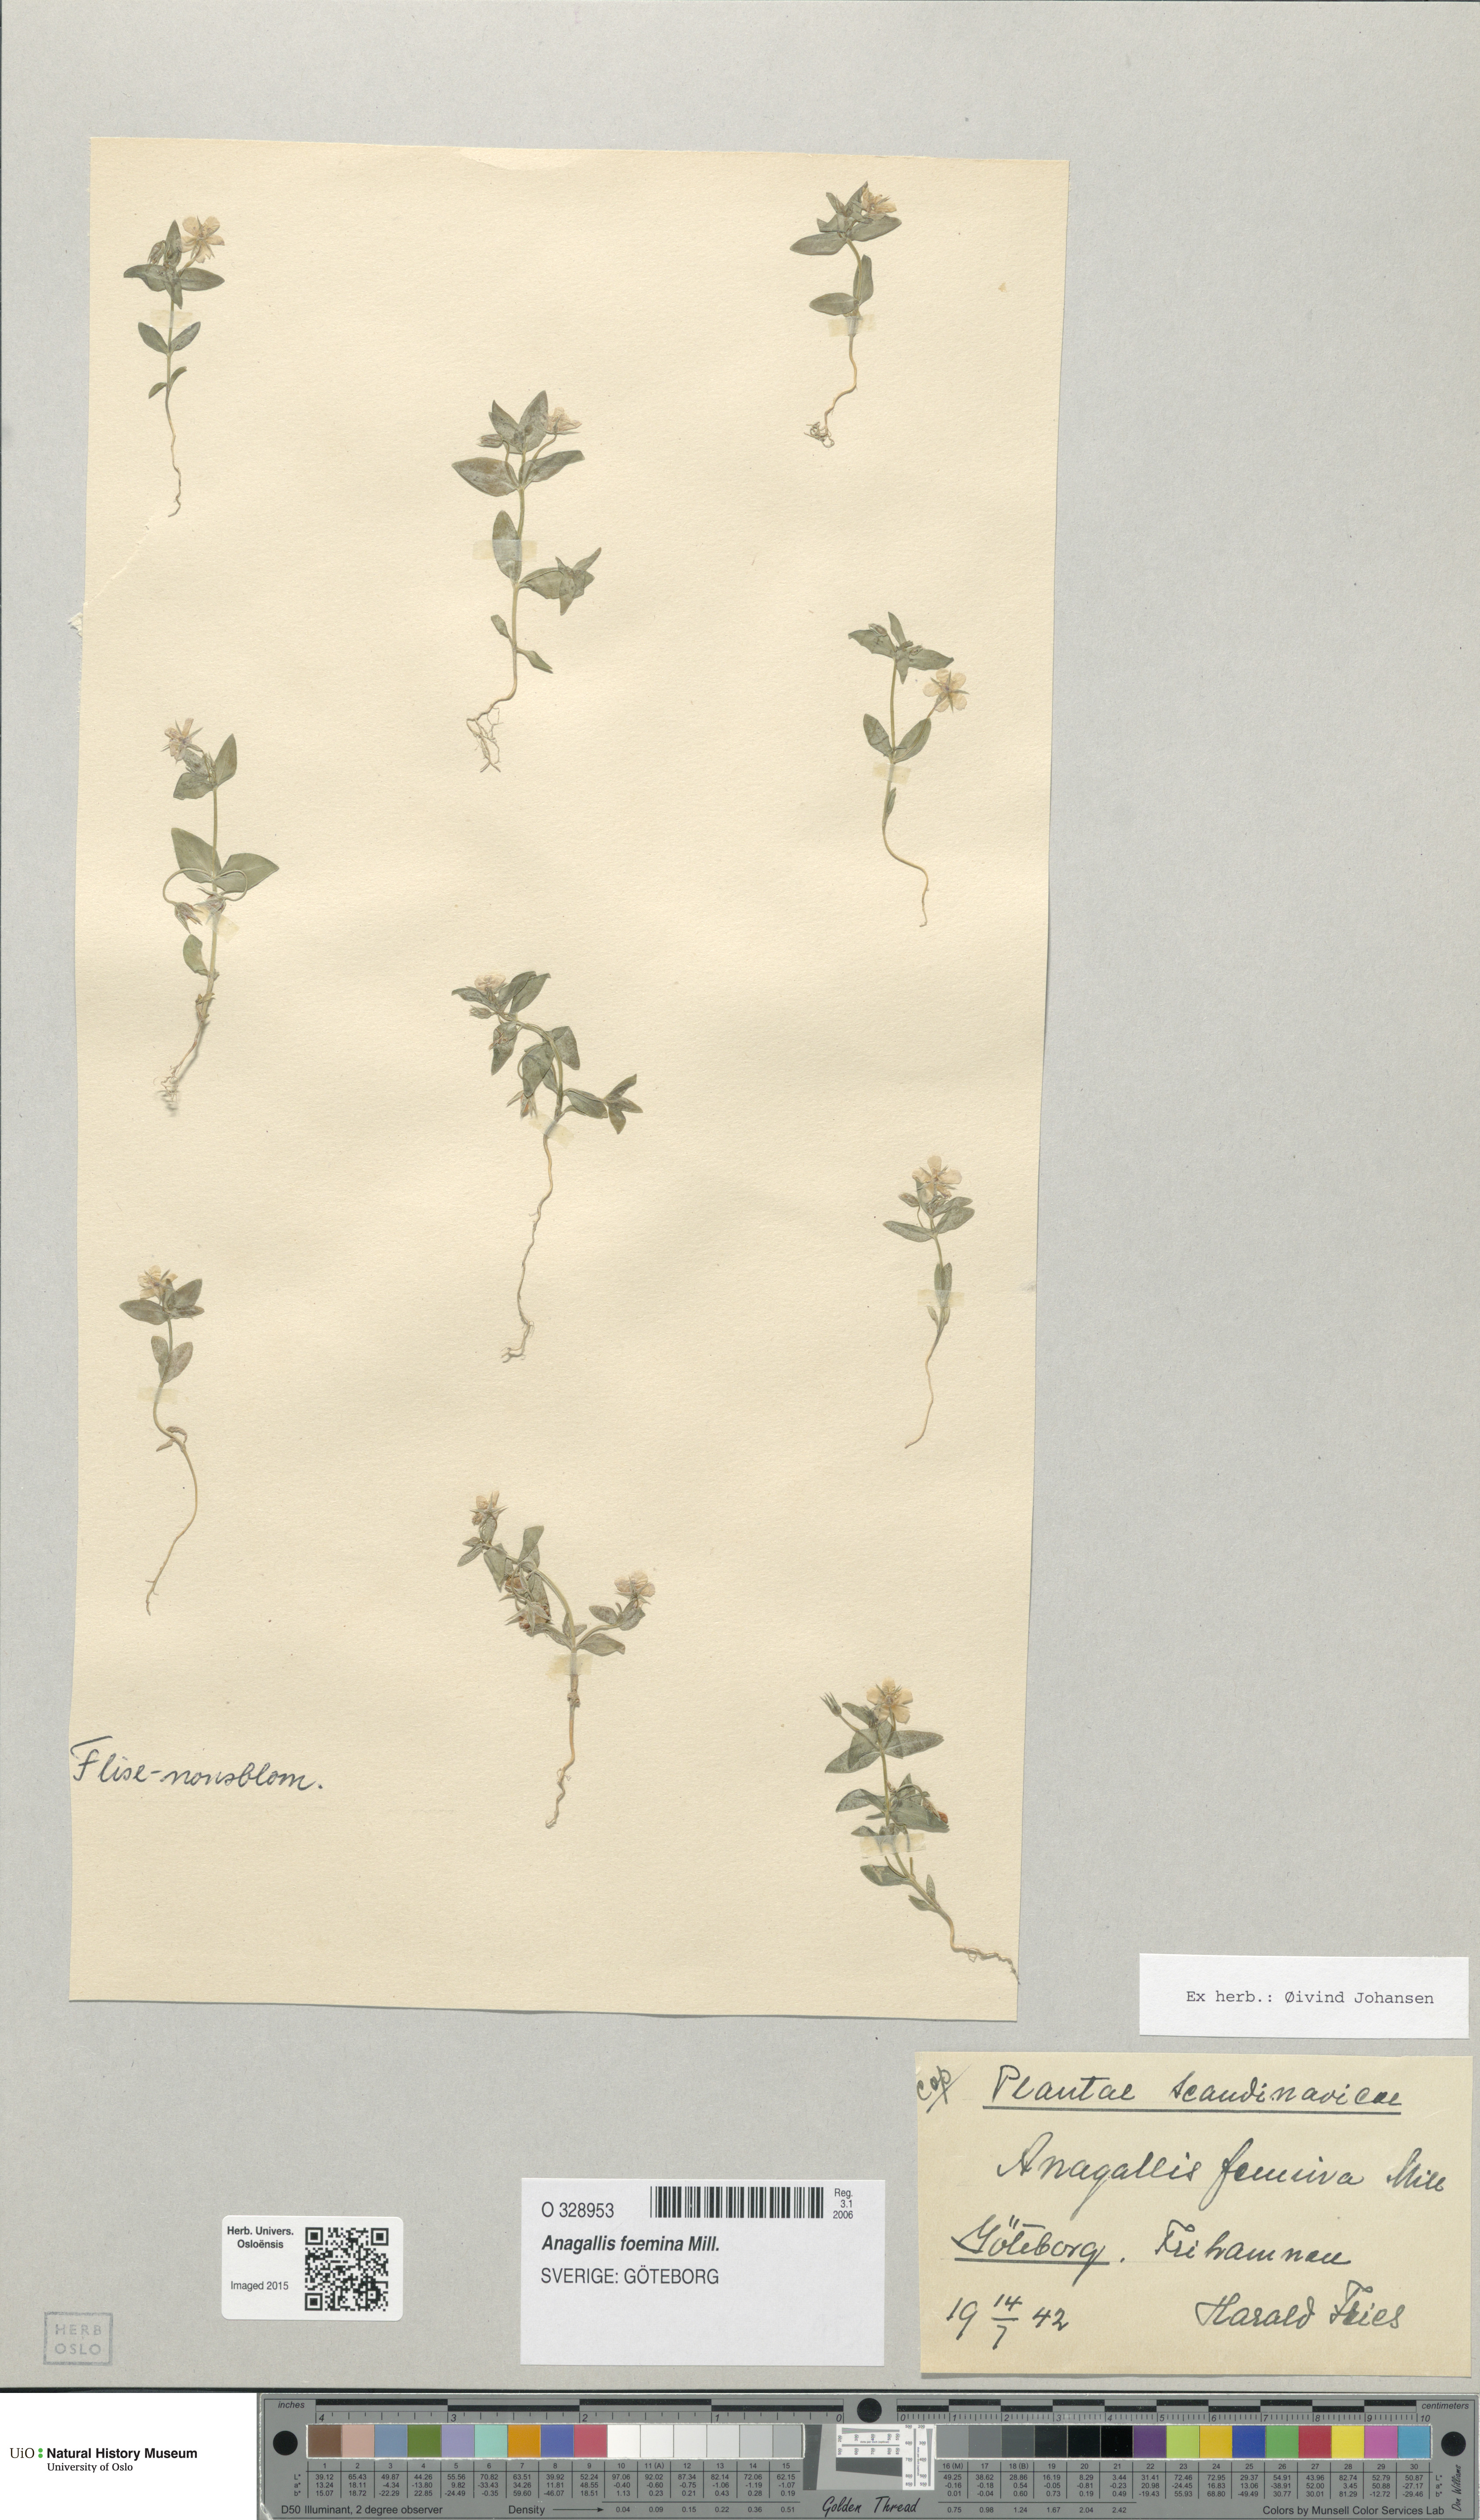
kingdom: Plantae
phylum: Tracheophyta
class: Magnoliopsida
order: Ericales
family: Primulaceae
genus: Lysimachia
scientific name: Lysimachia foemina
